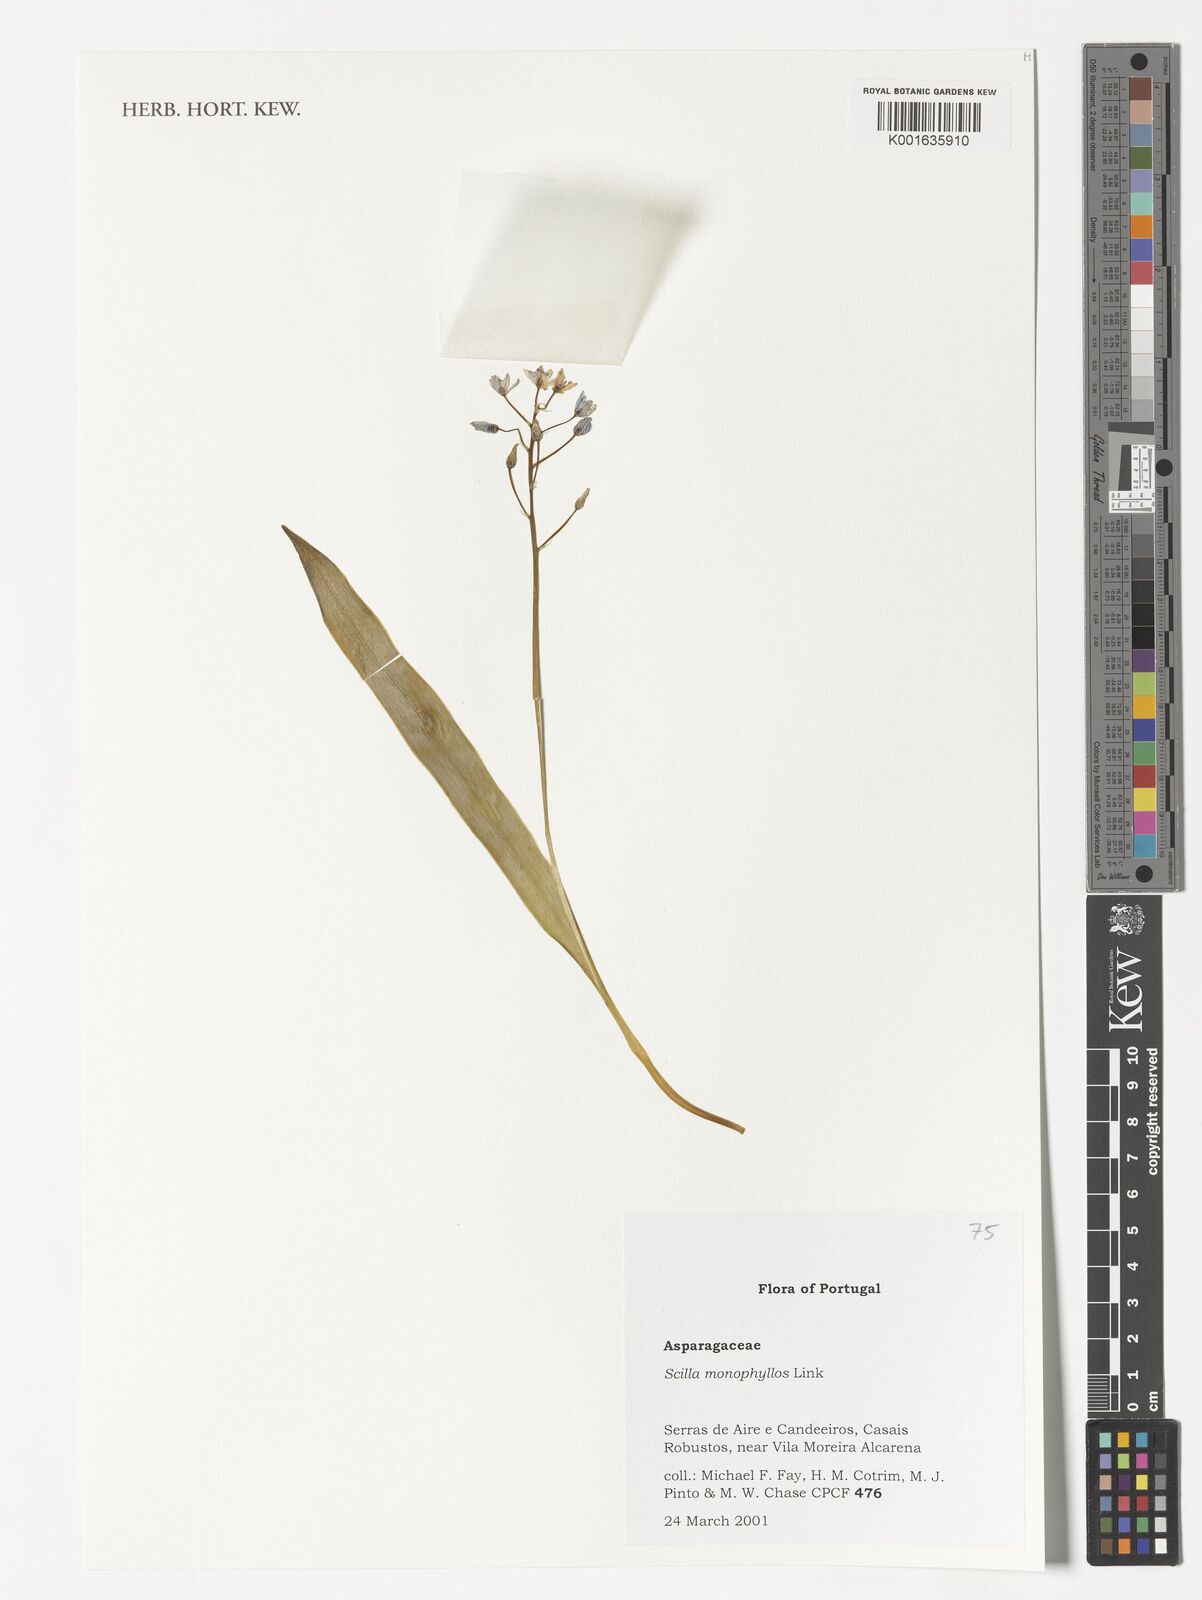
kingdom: Plantae
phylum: Tracheophyta
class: Liliopsida
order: Asparagales
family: Asparagaceae
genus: Scilla
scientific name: Scilla monophyllos
